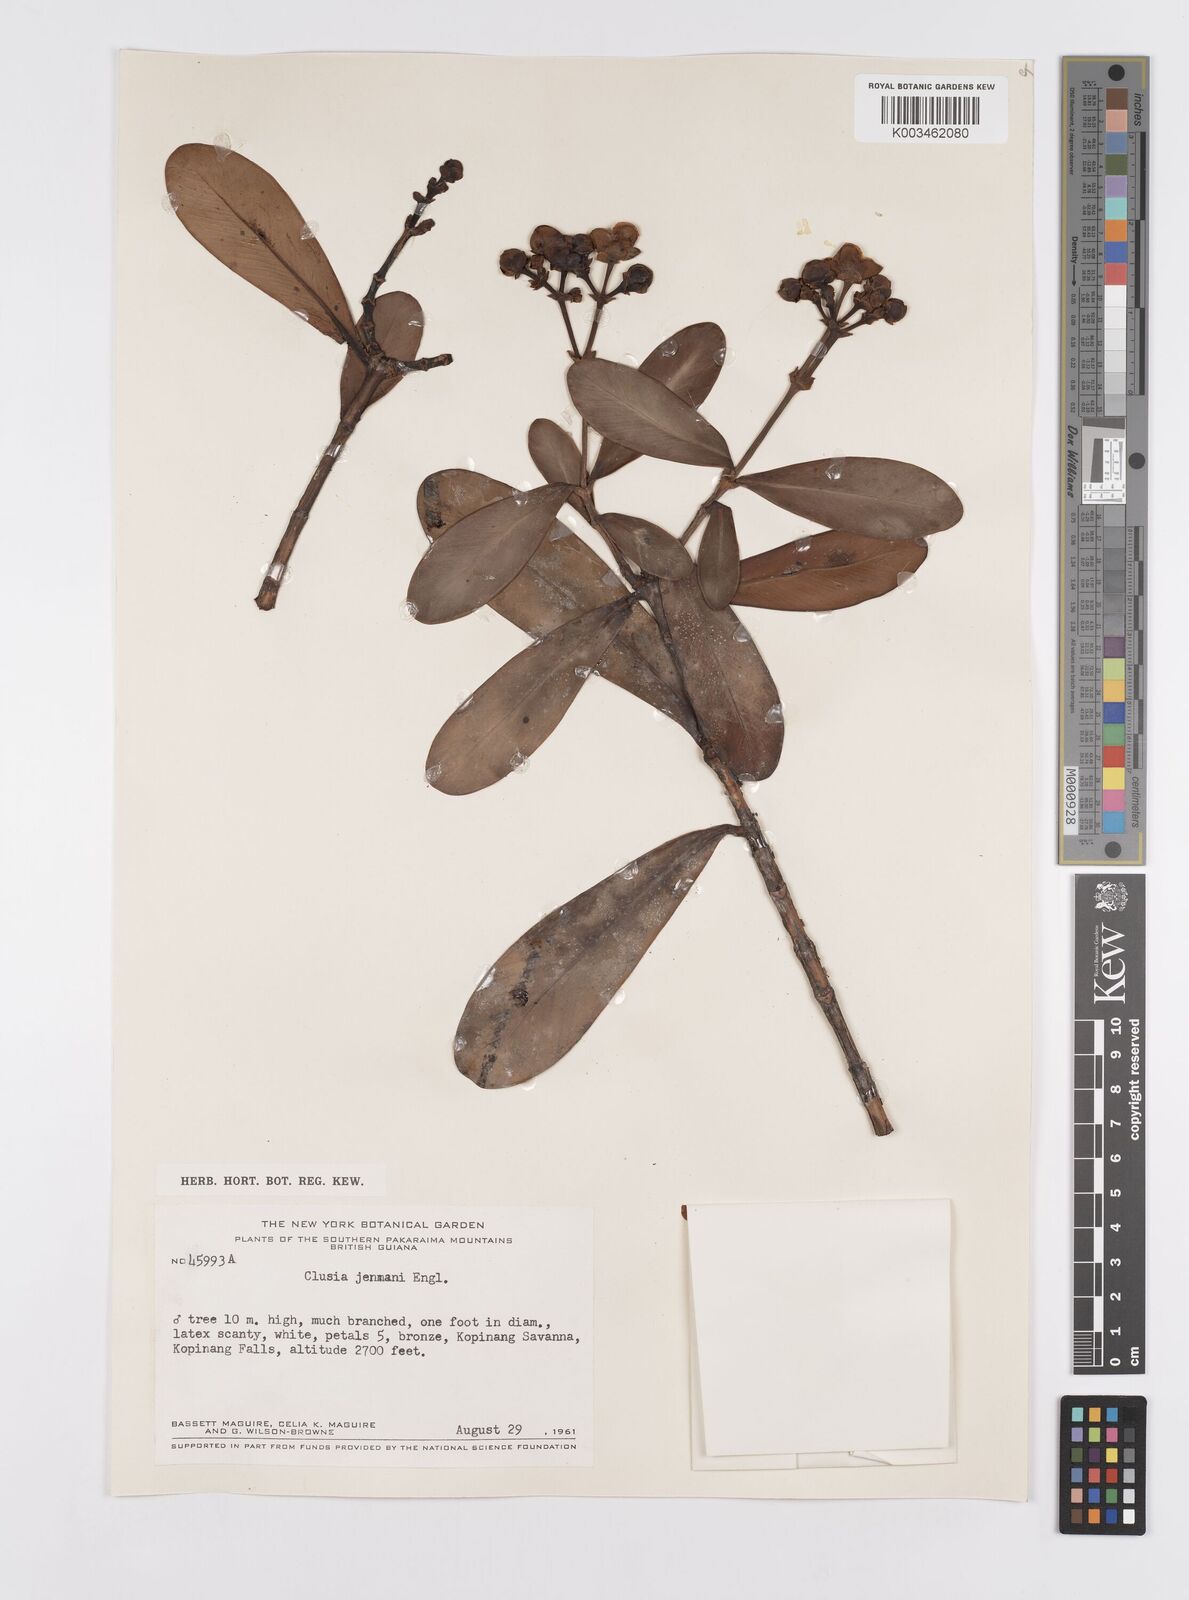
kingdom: Plantae
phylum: Tracheophyta
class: Magnoliopsida
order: Malpighiales
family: Clusiaceae
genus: Clusia
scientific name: Clusia myriandra
